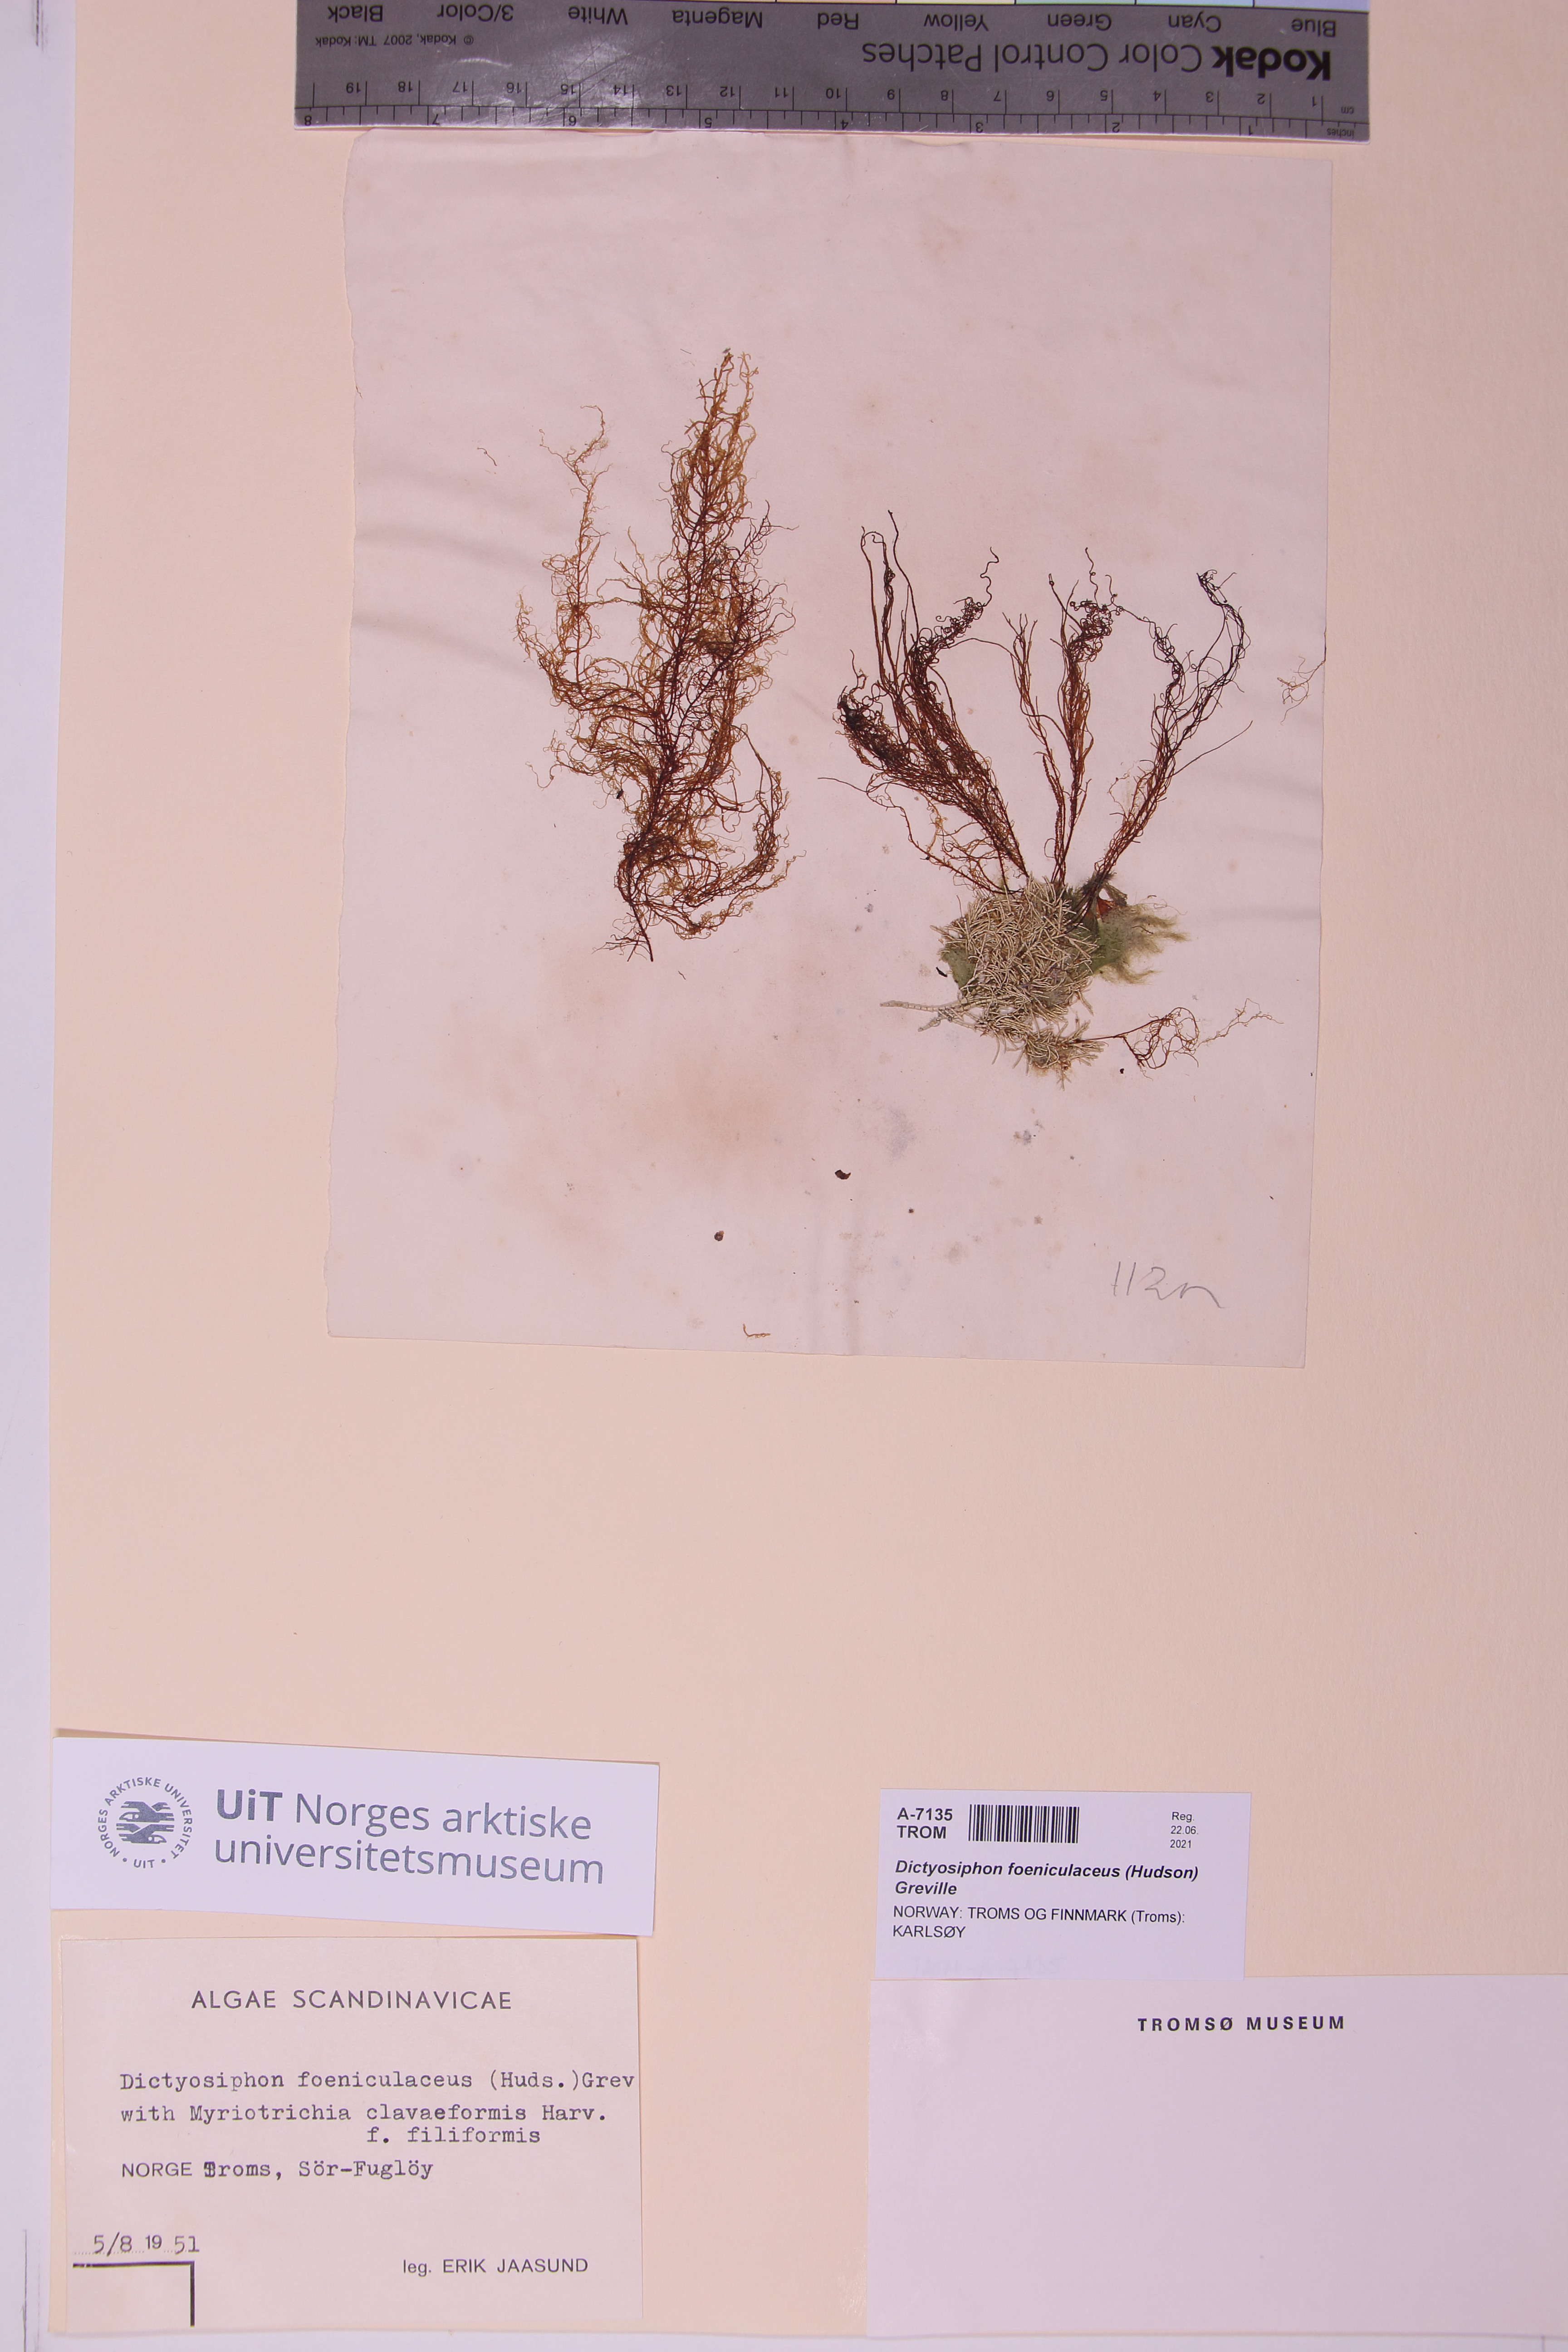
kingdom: Chromista
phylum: Ochrophyta
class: Phaeophyceae
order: Ectocarpales
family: Chordariaceae
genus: Dictyosiphon
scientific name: Dictyosiphon foeniculaceus
